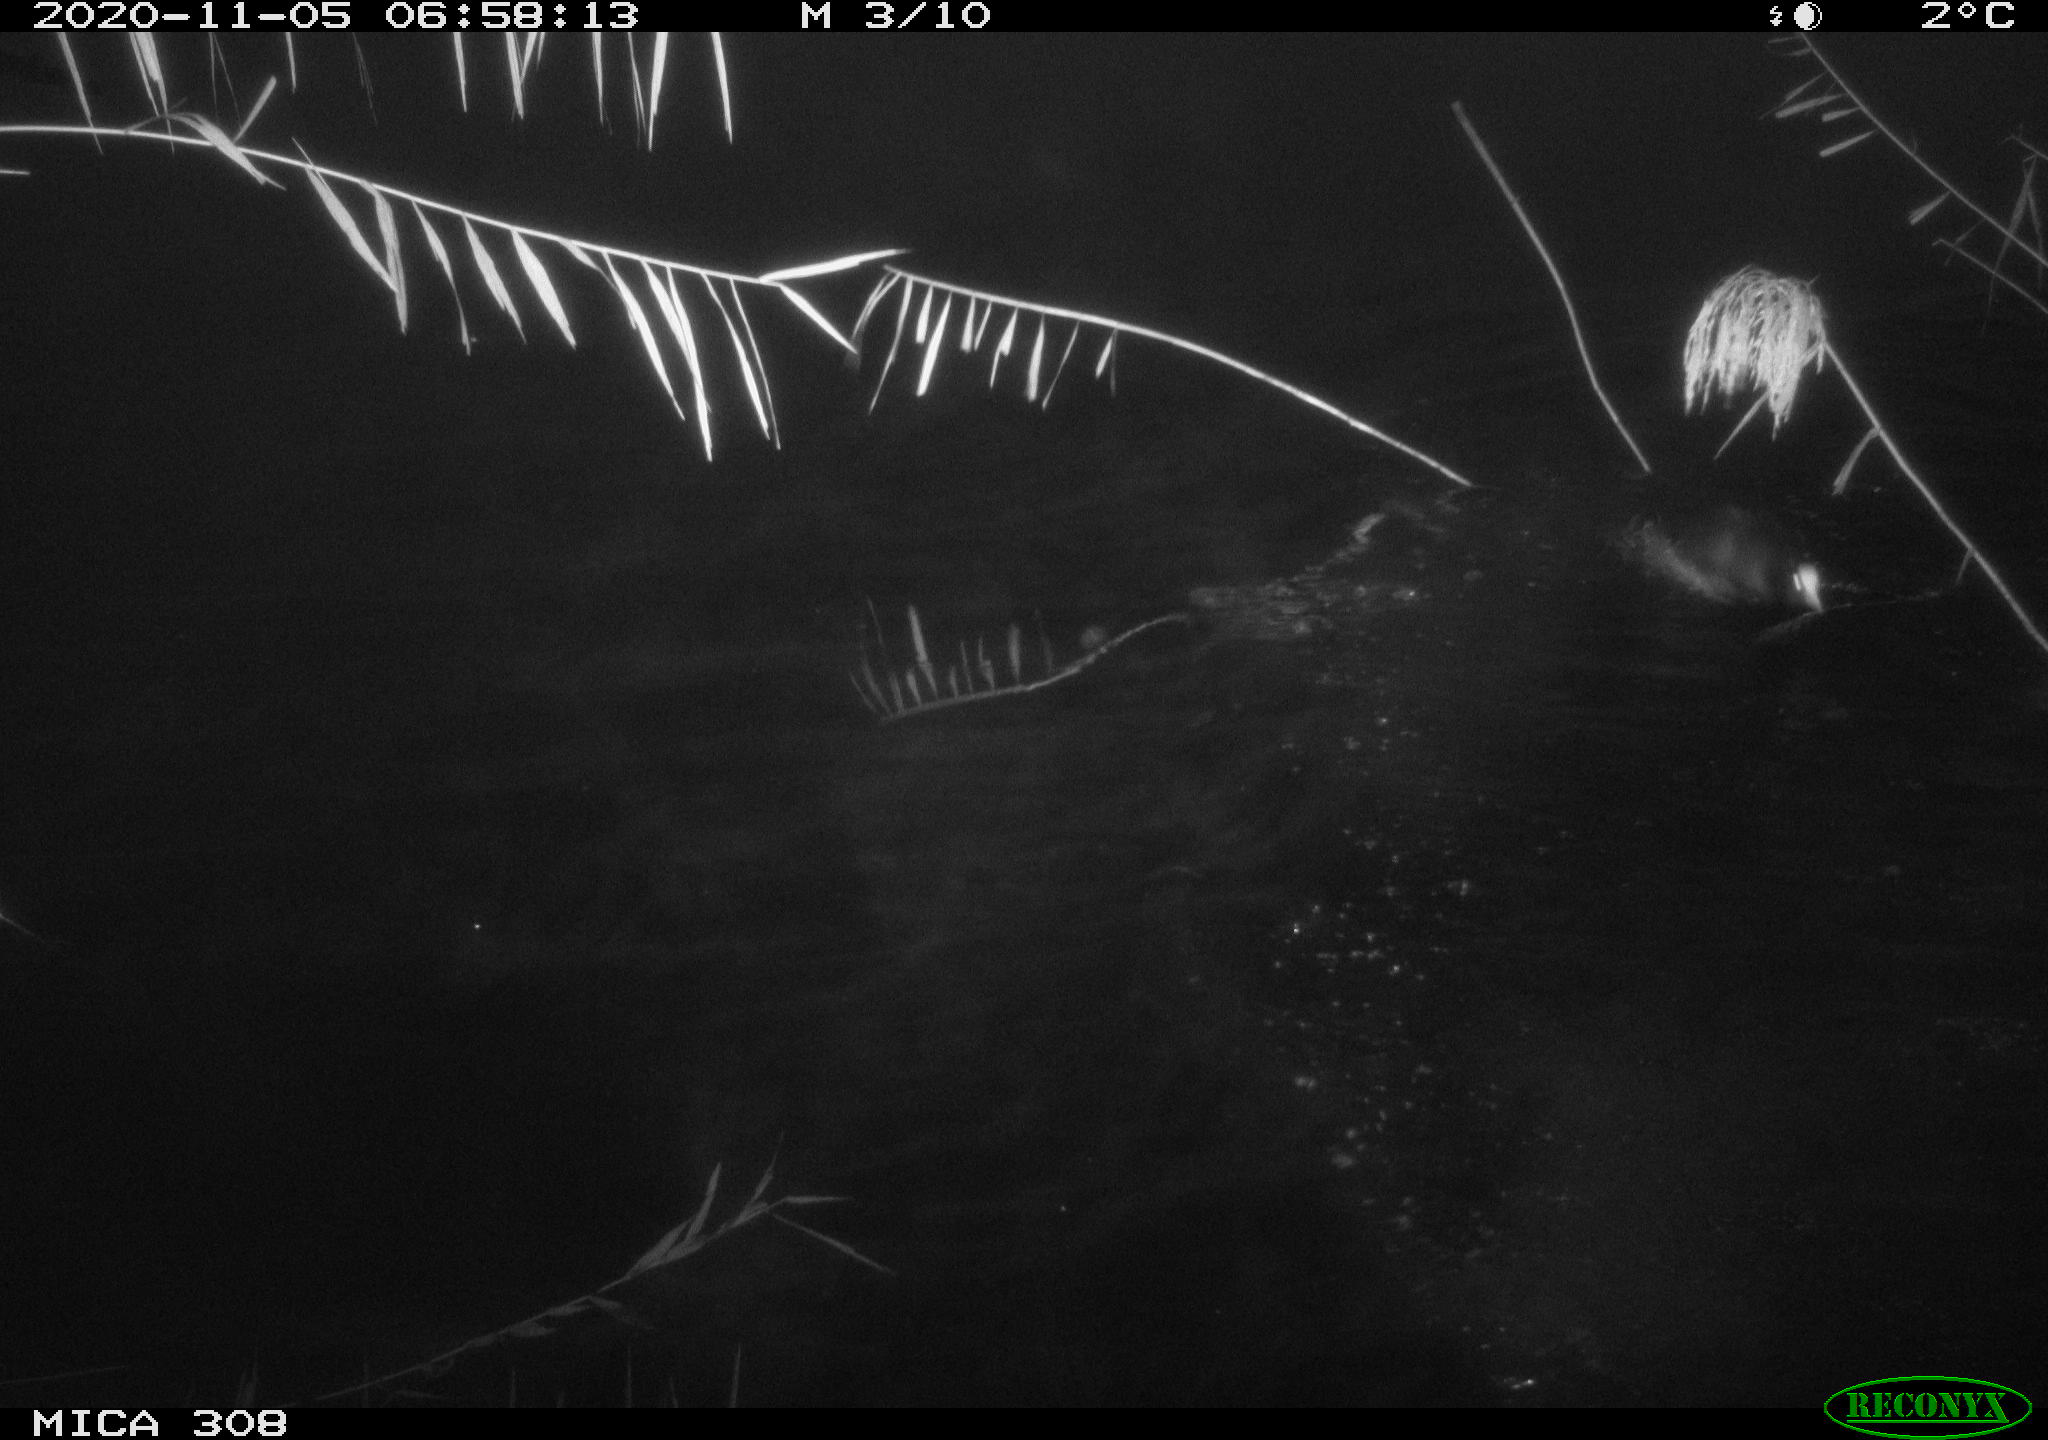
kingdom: Animalia
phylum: Chordata
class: Aves
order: Gruiformes
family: Rallidae
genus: Fulica
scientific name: Fulica atra
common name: Eurasian coot
